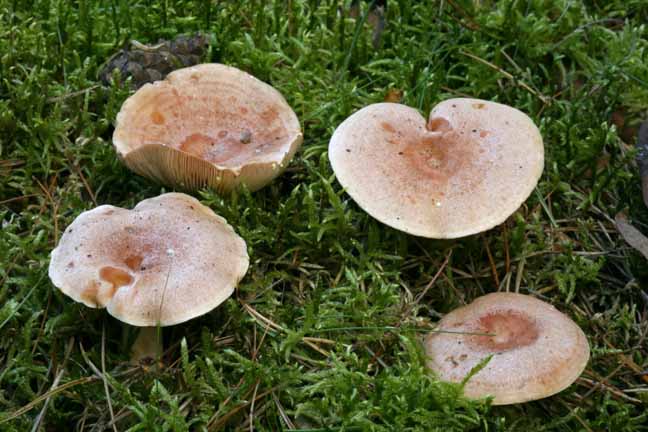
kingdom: Fungi
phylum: Basidiomycota
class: Agaricomycetes
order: Russulales
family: Russulaceae
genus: Lactarius
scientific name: Lactarius chrysorrheus
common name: svovlmælket mælkehat
